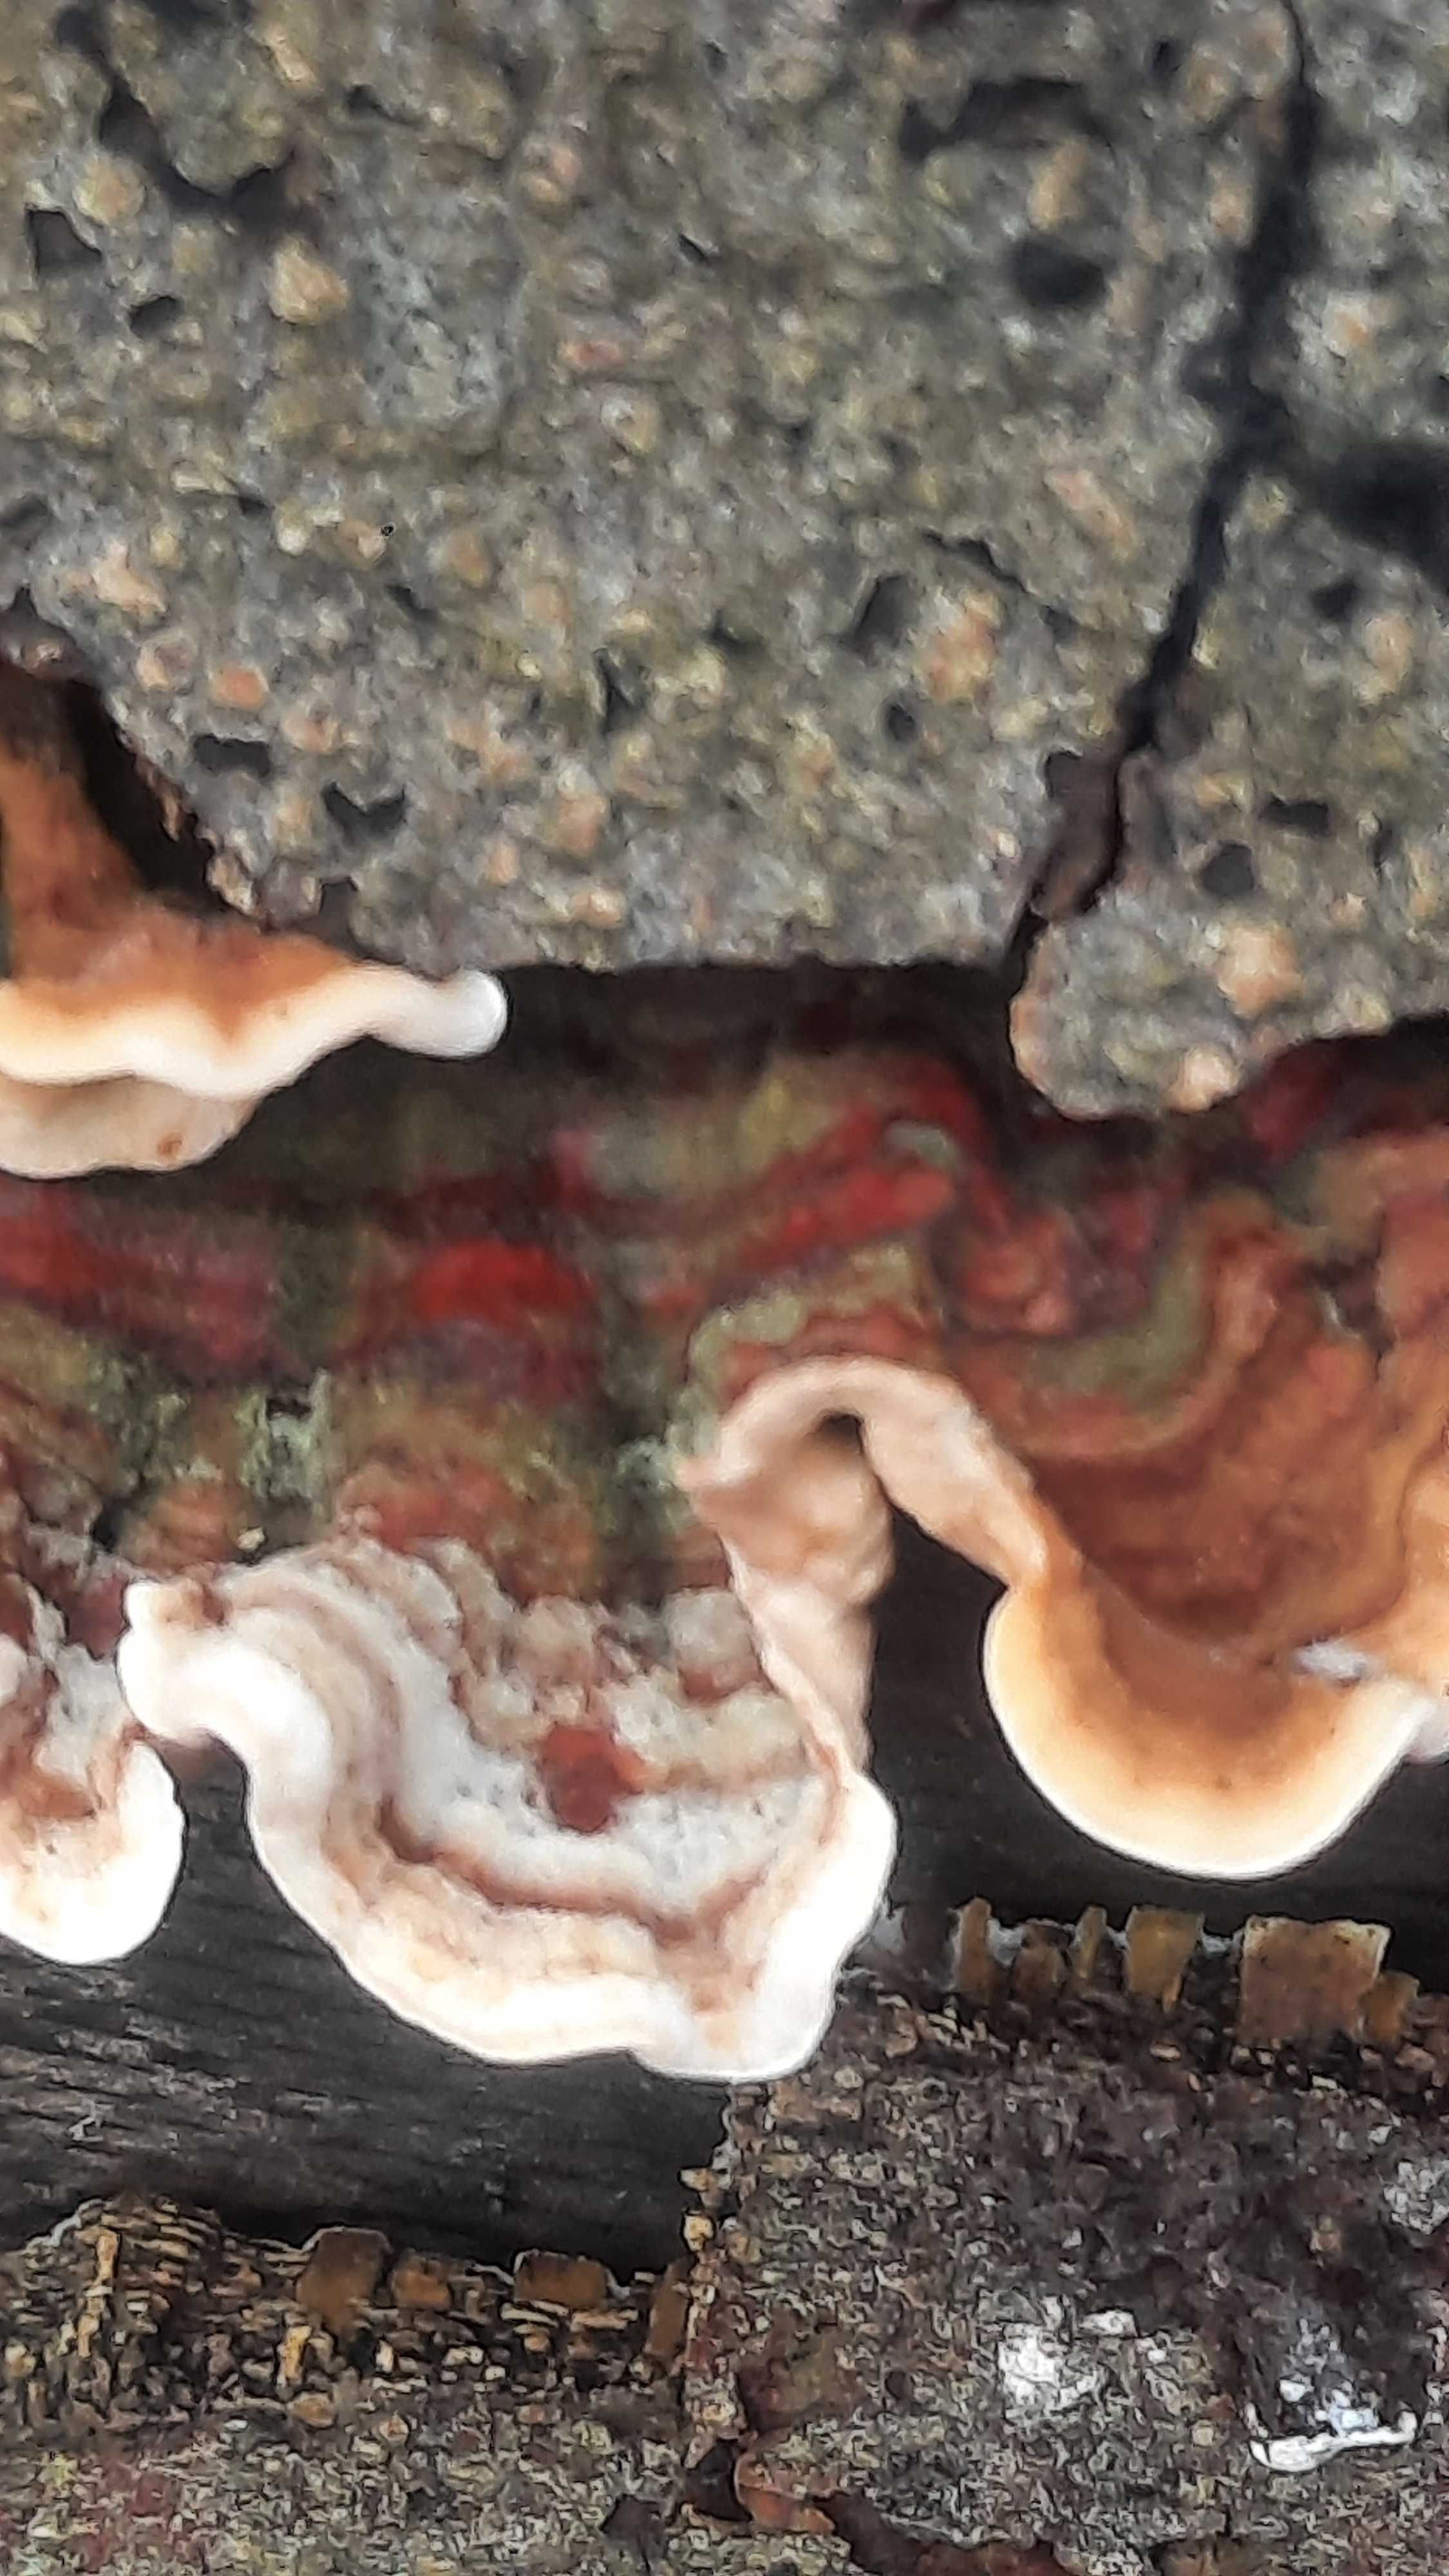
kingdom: Fungi
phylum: Basidiomycota
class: Agaricomycetes
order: Russulales
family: Stereaceae
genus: Stereum
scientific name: Stereum subtomentosum
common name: smuk lædersvamp
